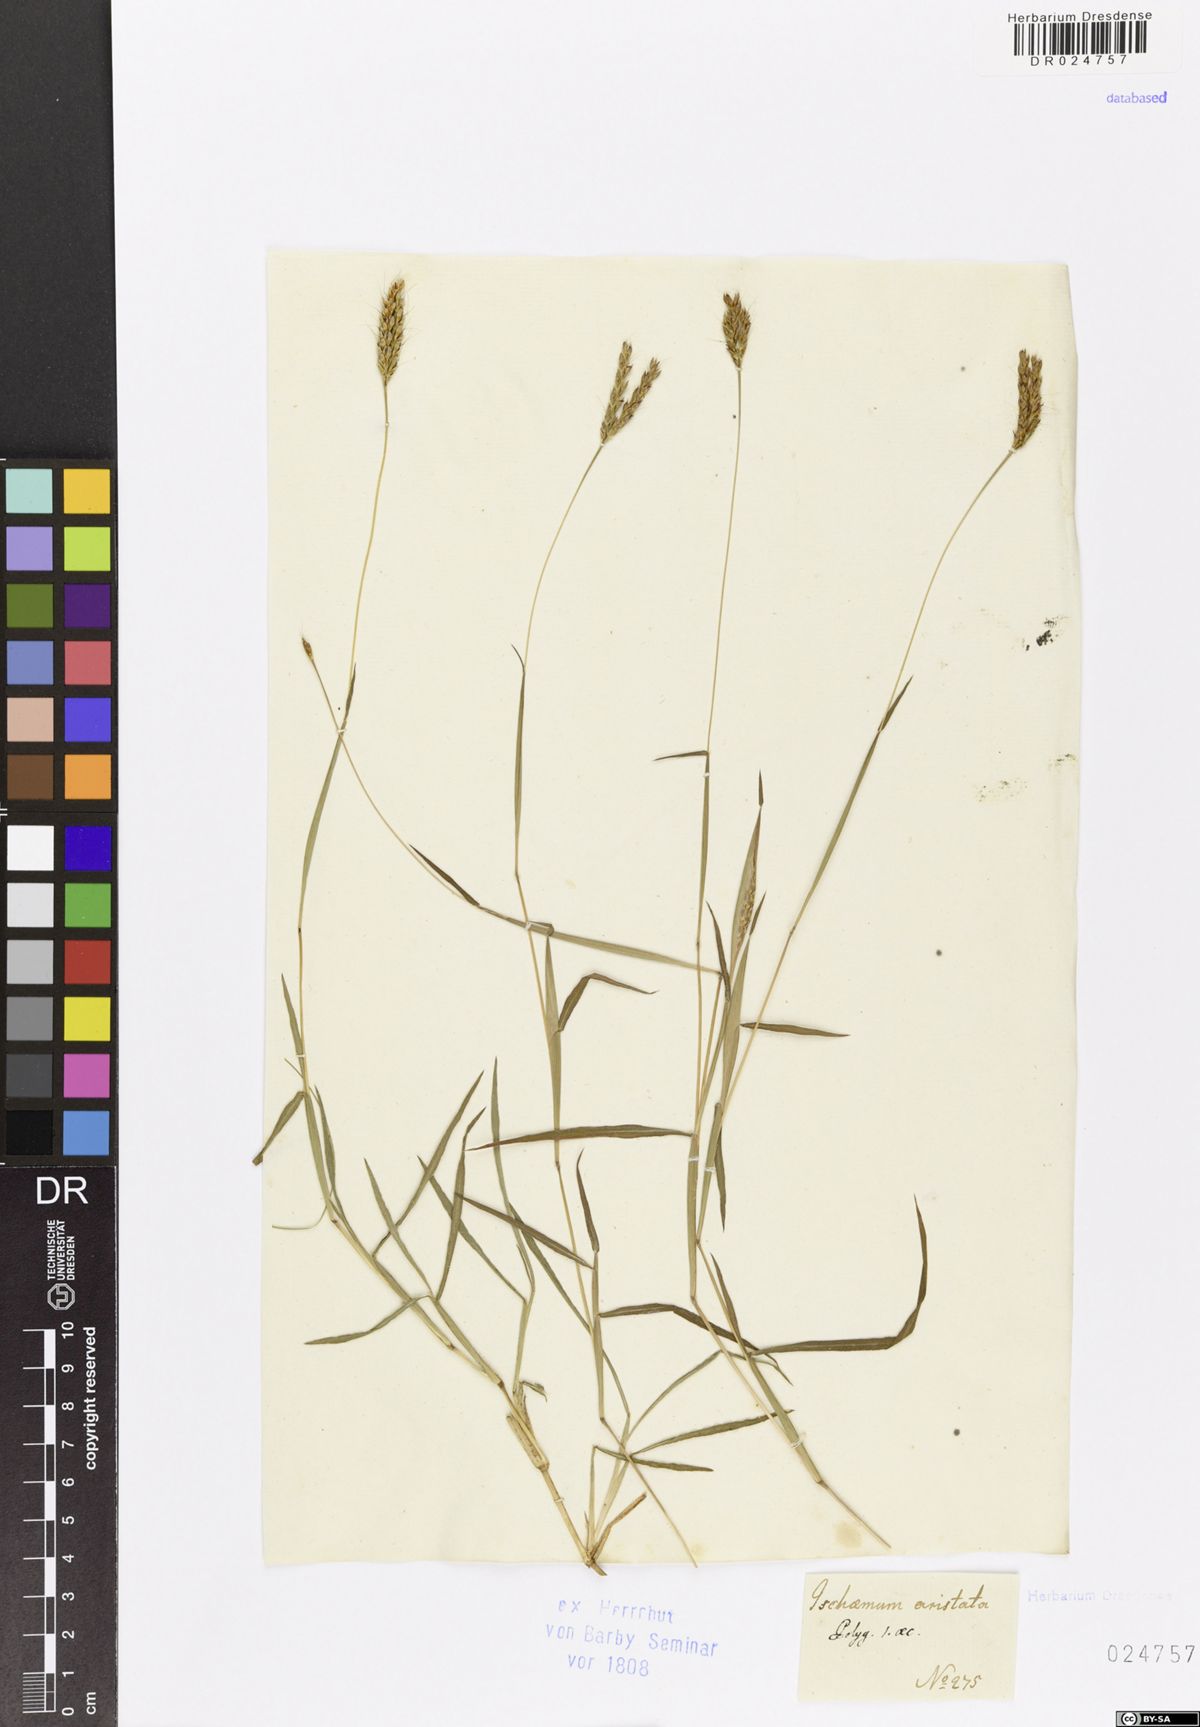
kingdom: Plantae
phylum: Tracheophyta
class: Liliopsida
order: Poales
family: Poaceae
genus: Ischaemum
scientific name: Ischaemum aristatum
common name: Toco grass
